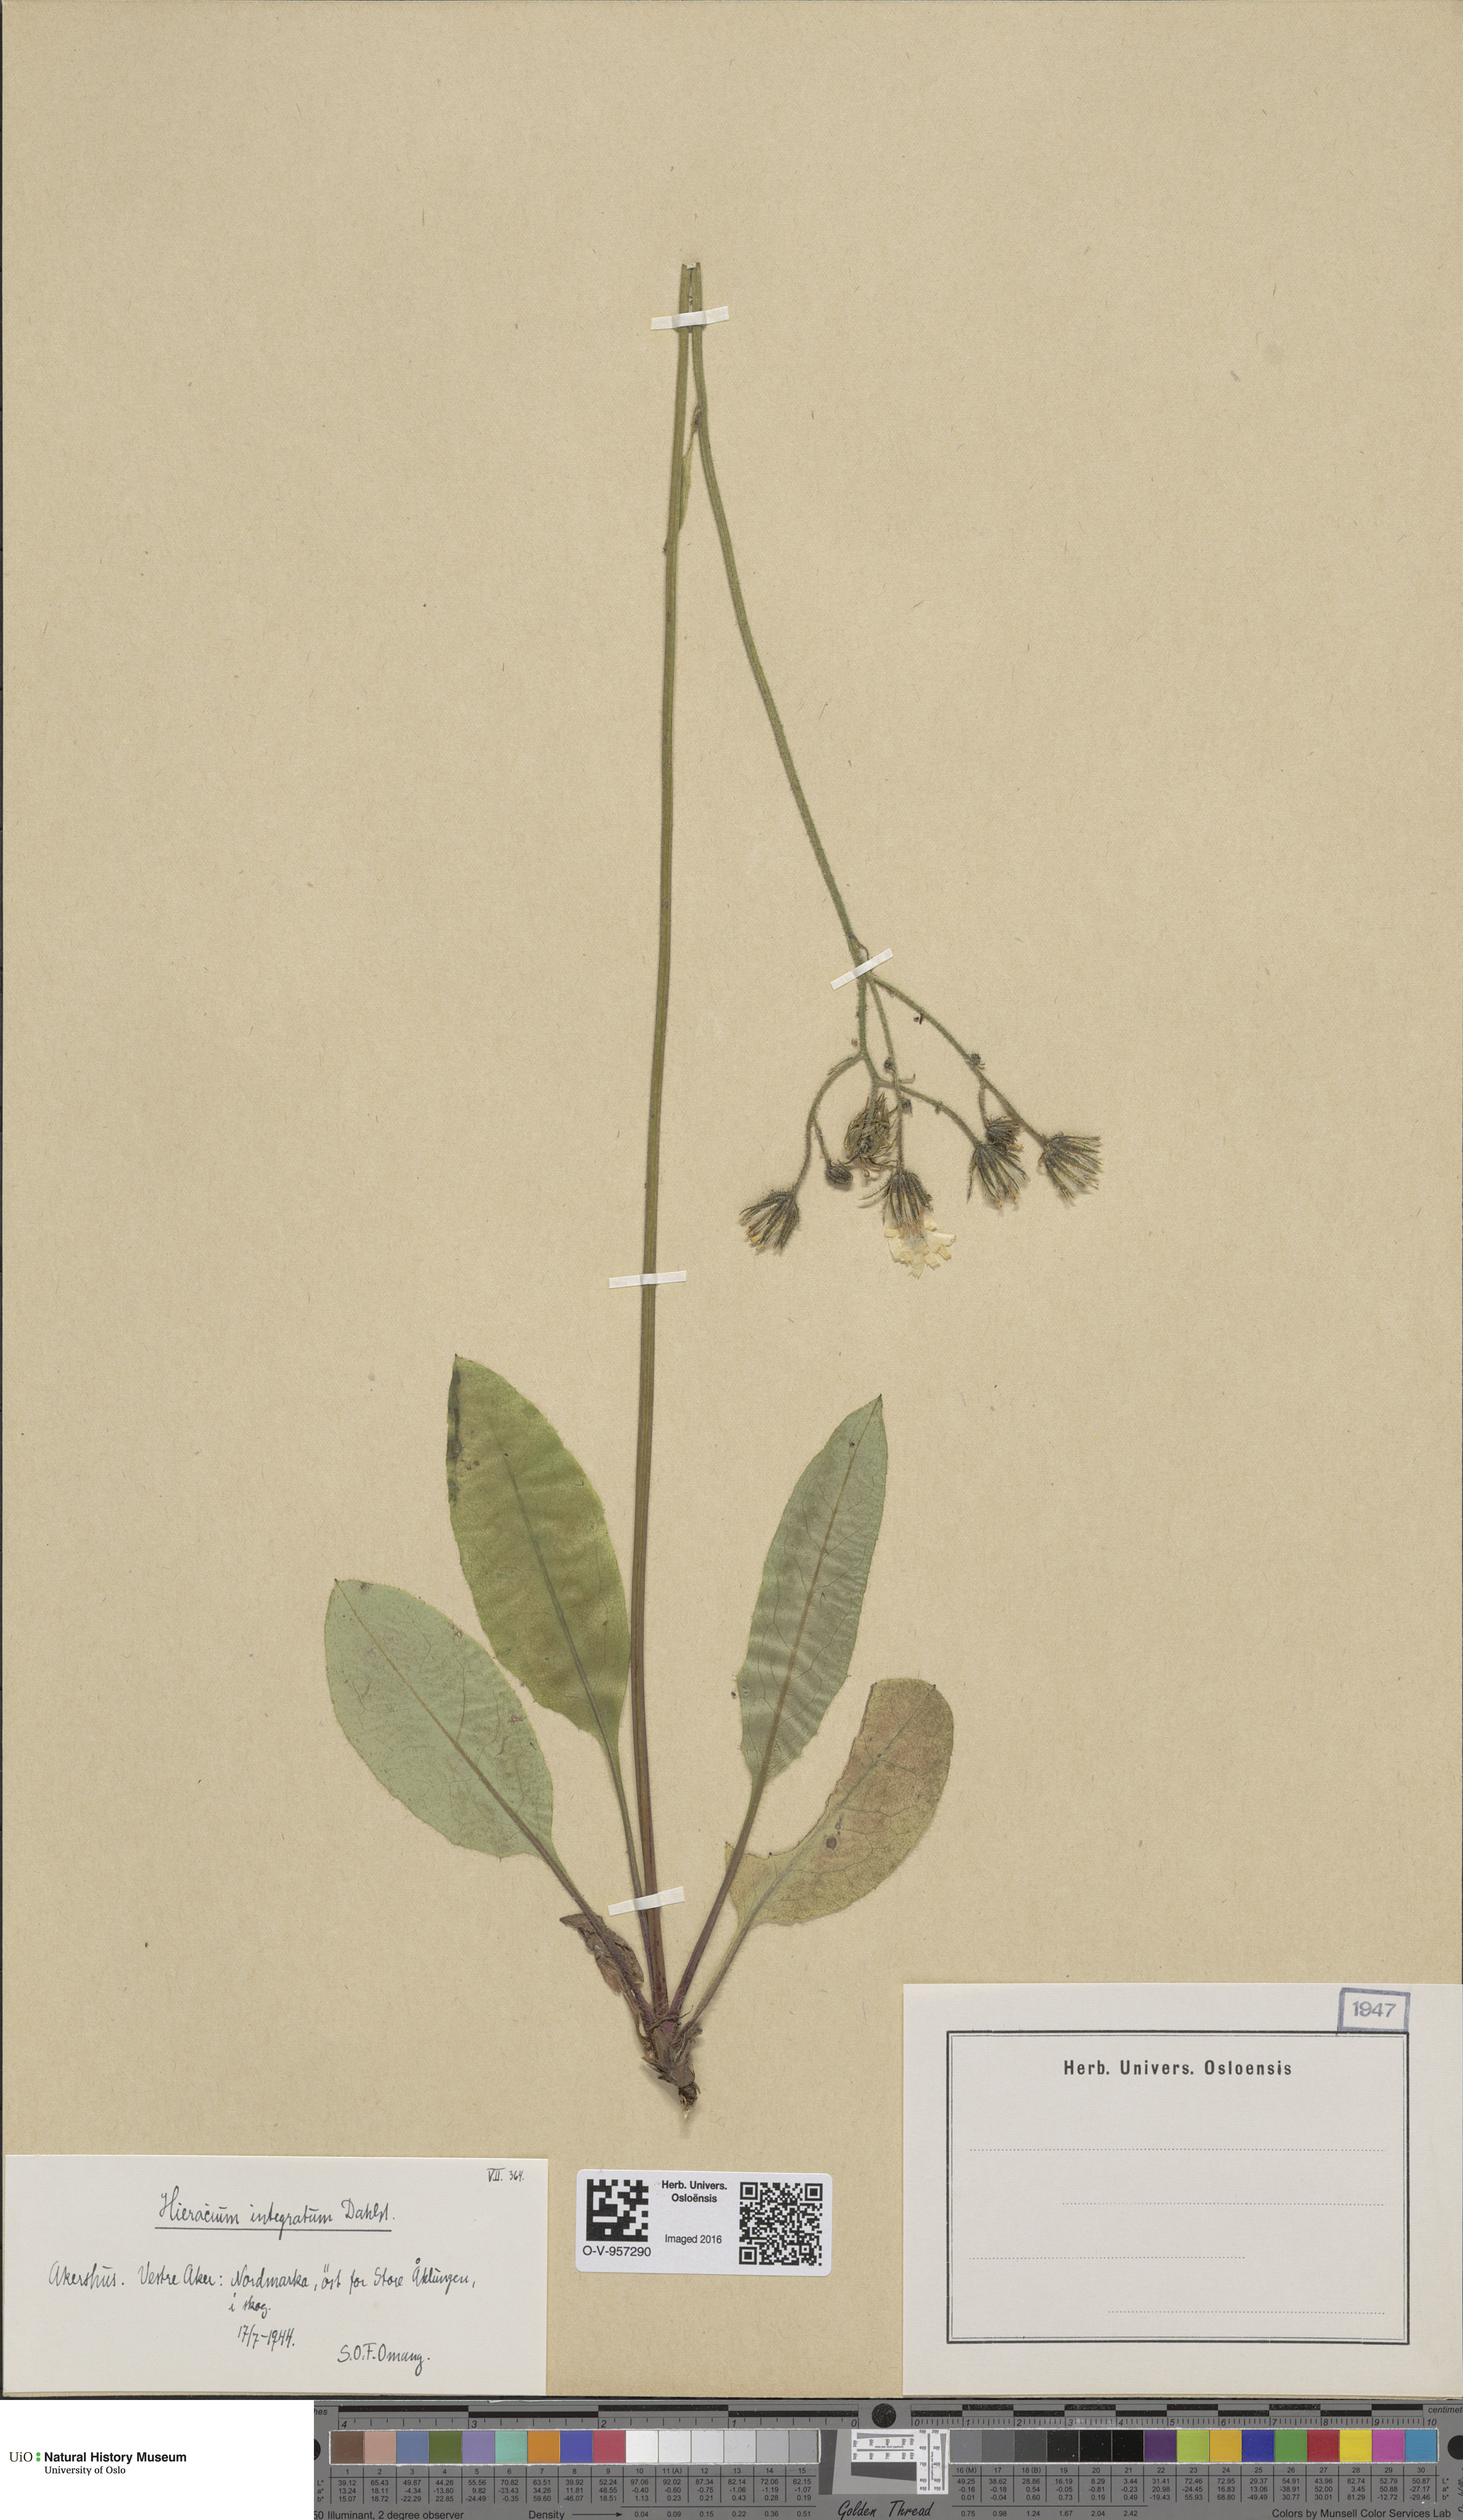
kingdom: Plantae
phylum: Tracheophyta
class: Magnoliopsida
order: Asterales
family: Asteraceae
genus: Hieracium
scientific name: Hieracium murorum
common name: Wall hawkweed
